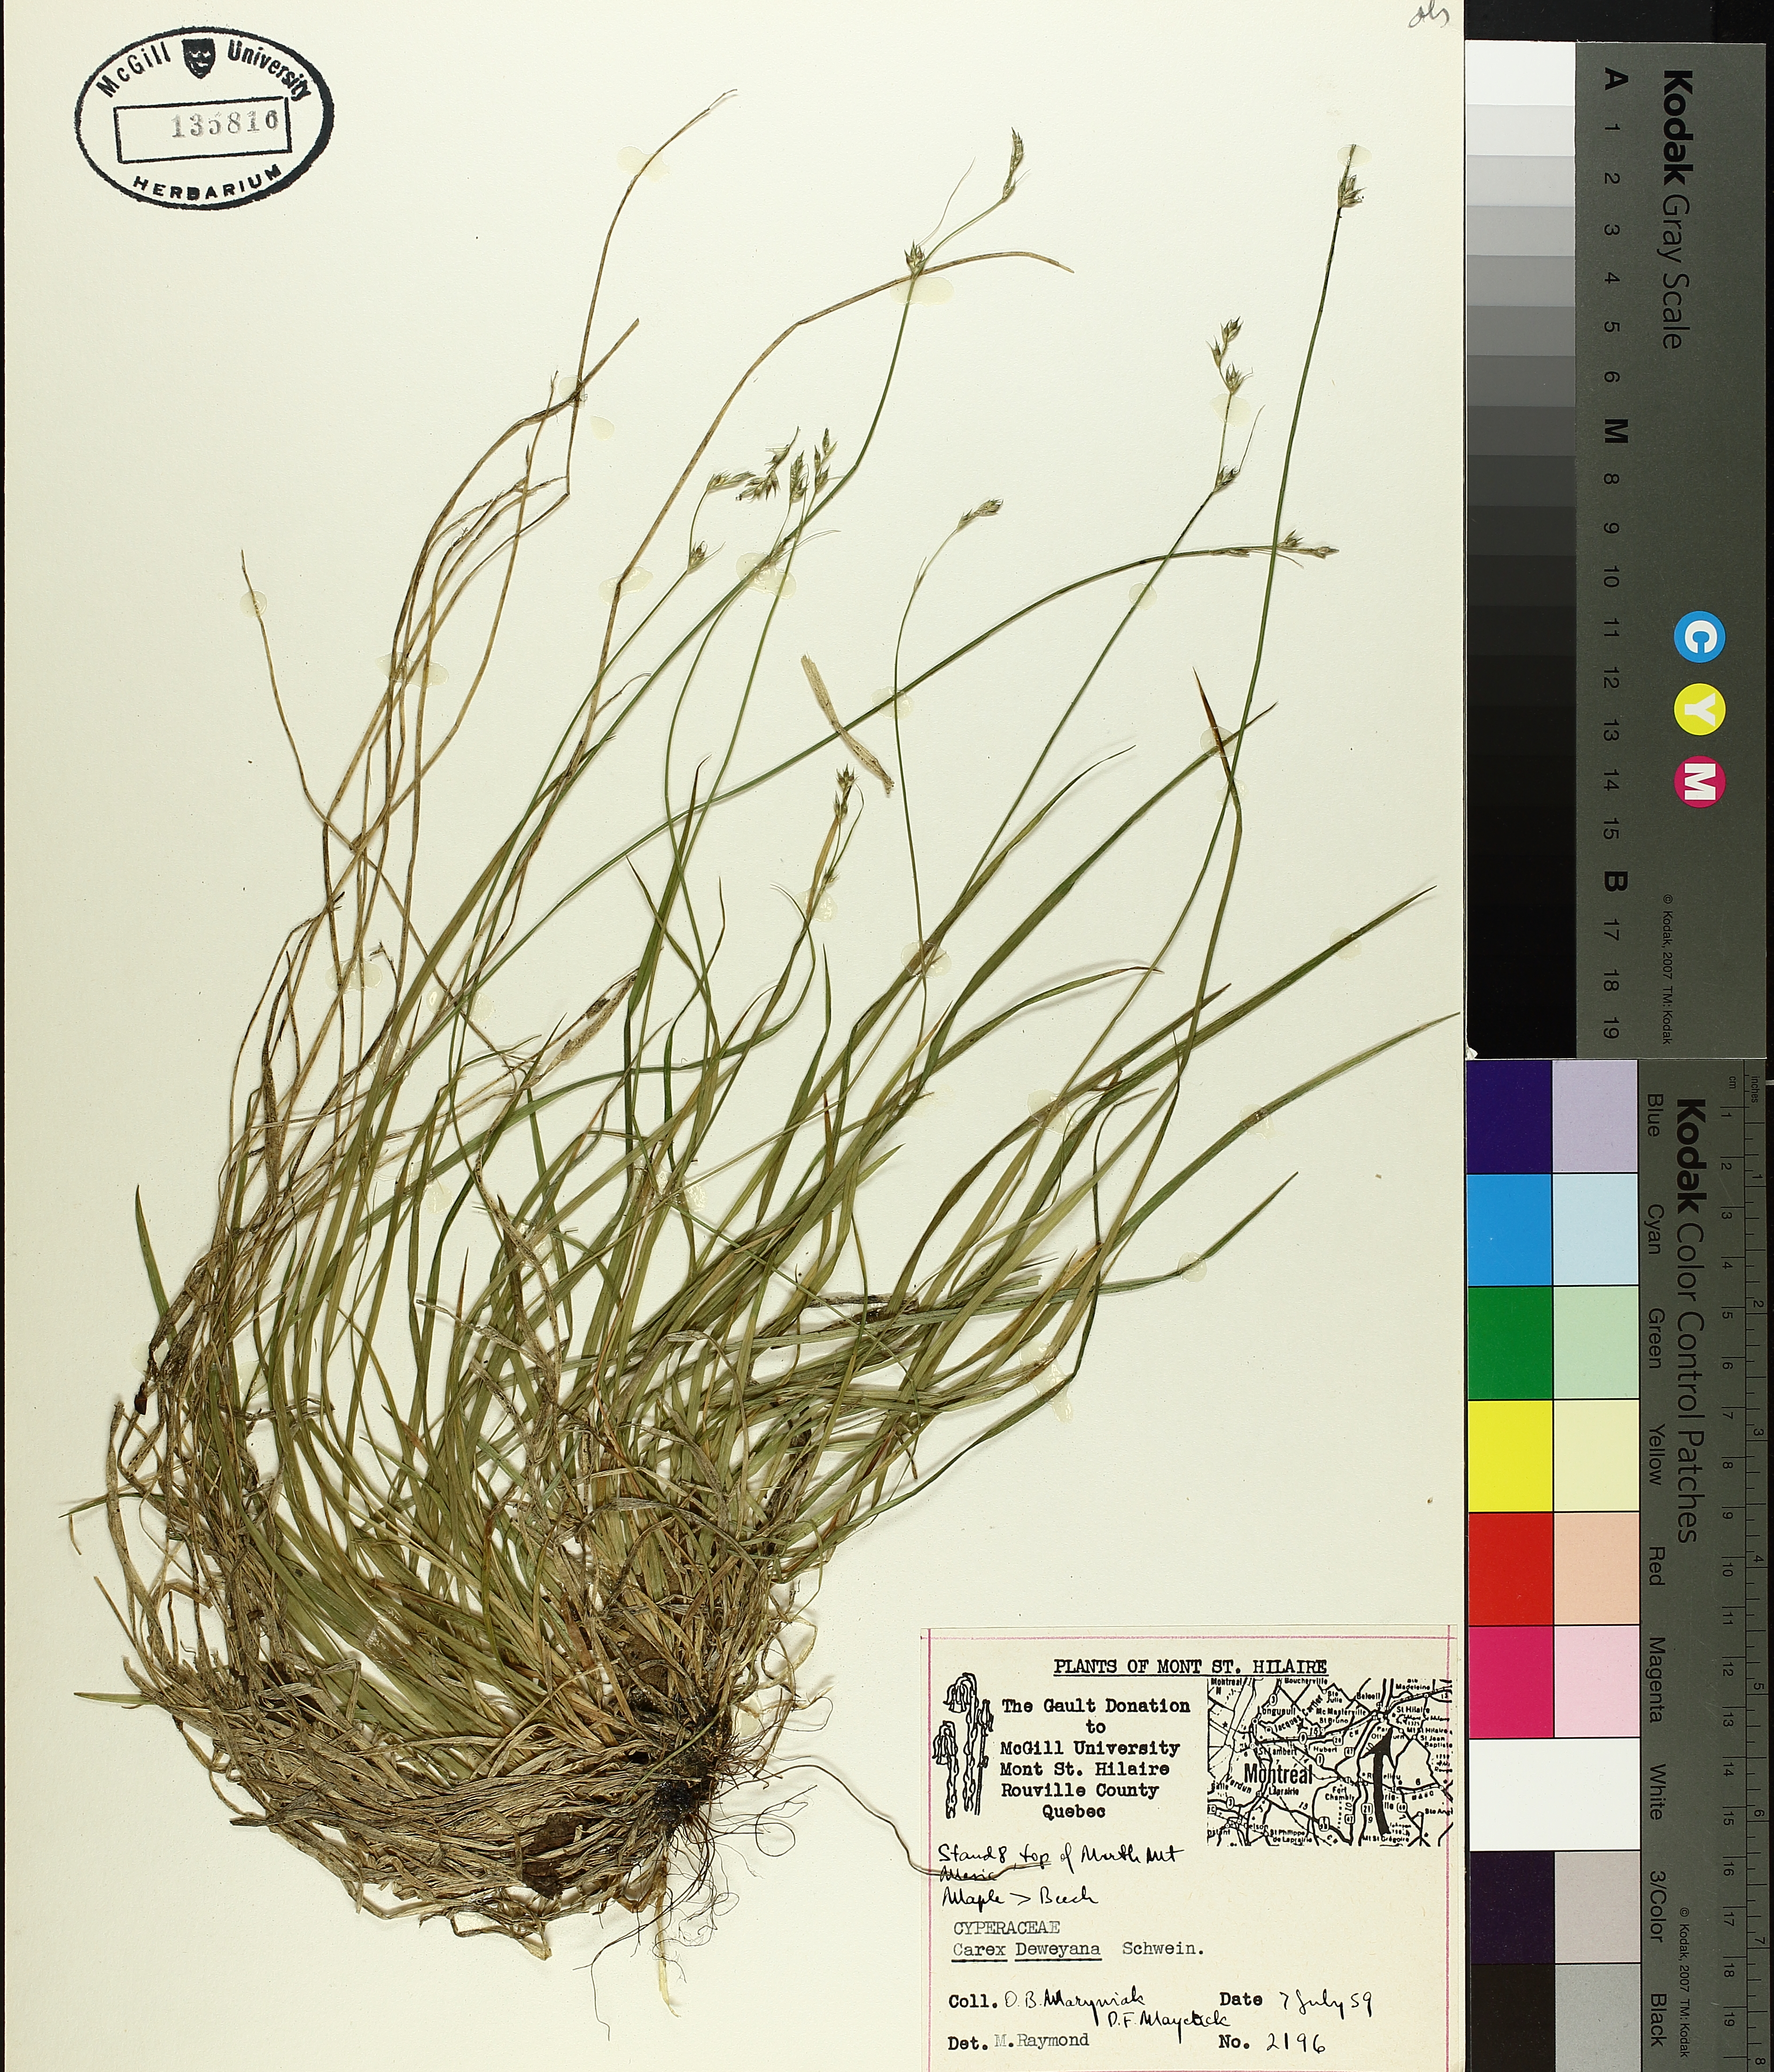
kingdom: Plantae
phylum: Tracheophyta
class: Liliopsida
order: Poales
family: Cyperaceae
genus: Carex
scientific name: Carex pensylvanica
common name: Common oak sedge
